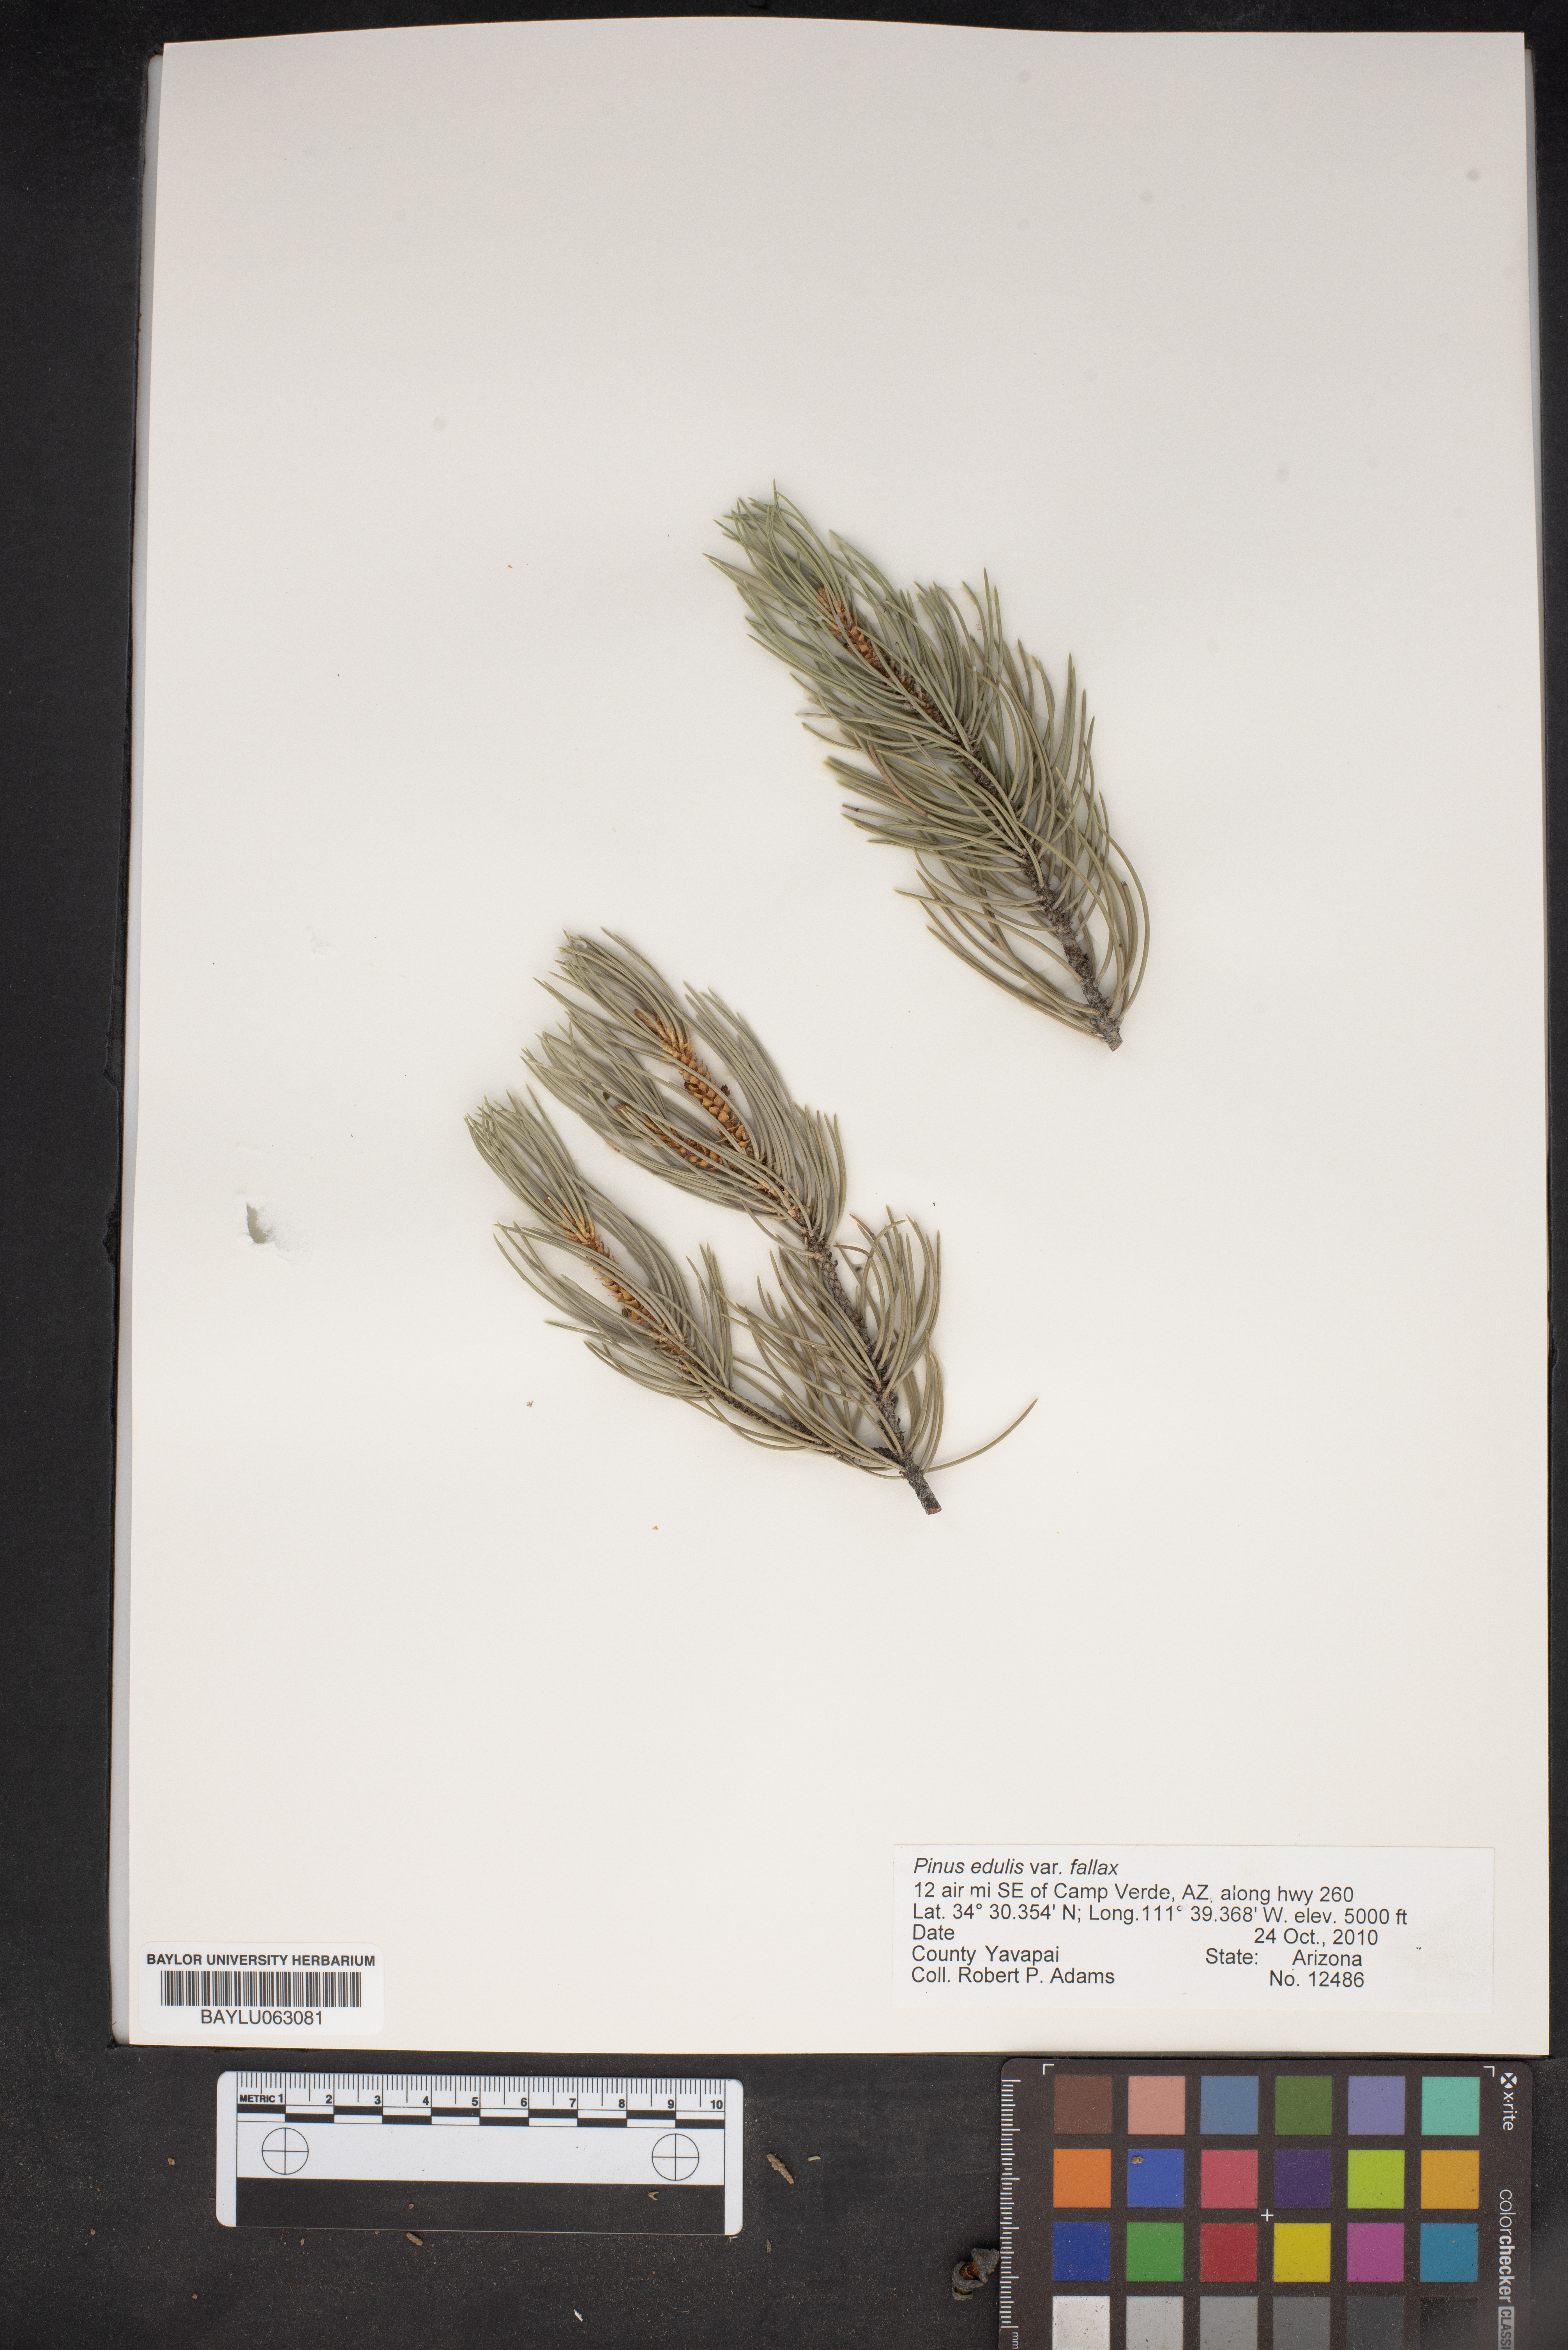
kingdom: Plantae
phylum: Tracheophyta
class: Pinopsida
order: Pinales
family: Pinaceae
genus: Pinus
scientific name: Pinus monophylla
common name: One-leaved nut pine
